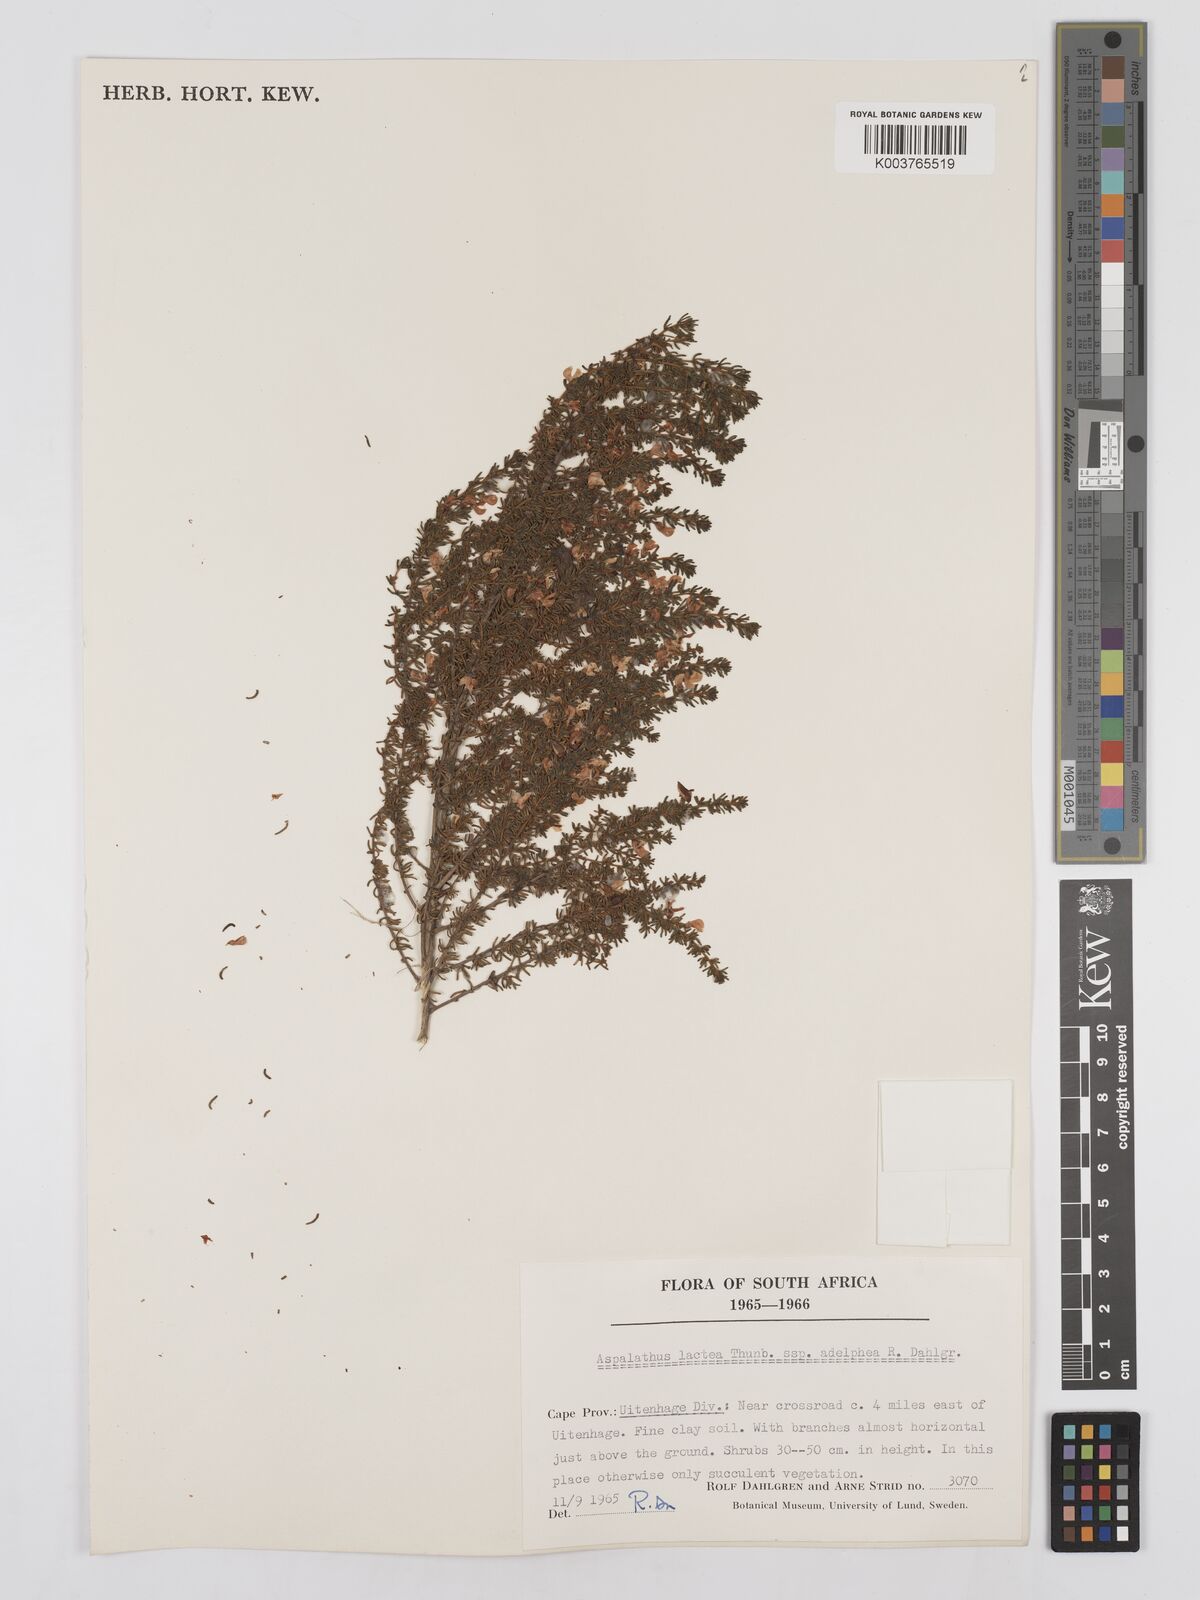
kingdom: Plantae
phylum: Tracheophyta
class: Magnoliopsida
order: Fabales
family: Fabaceae
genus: Aspalathus
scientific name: Aspalathus lactea
